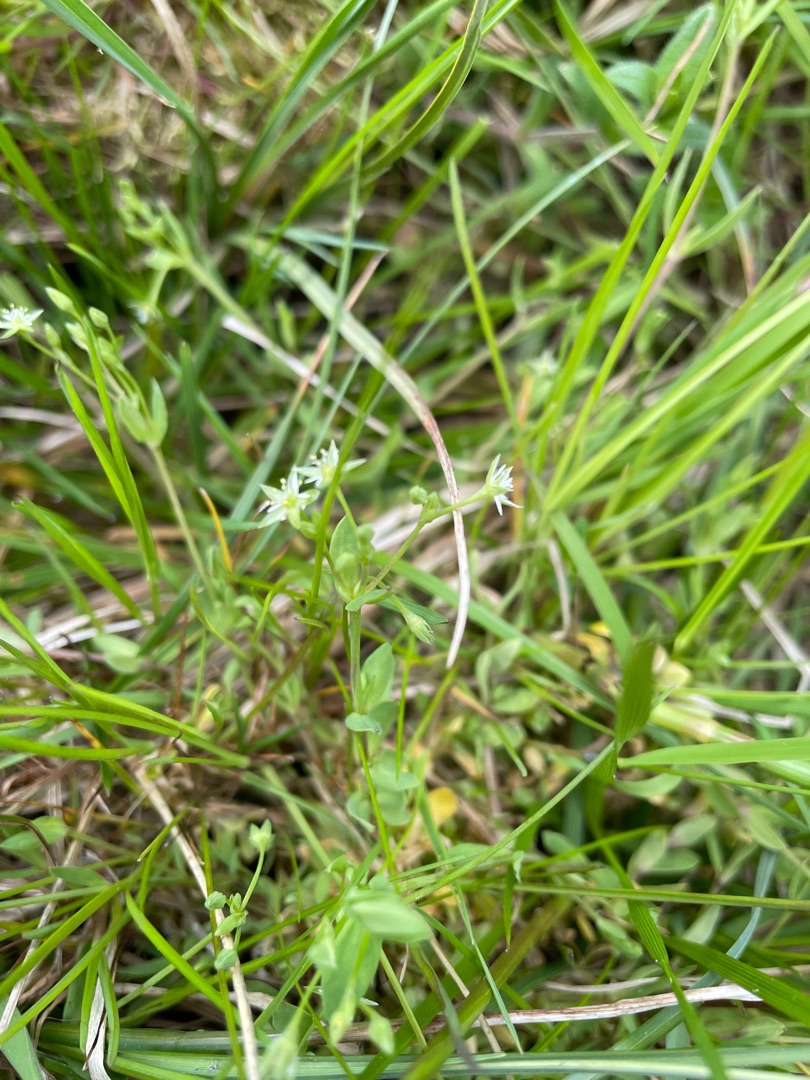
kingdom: Plantae
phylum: Tracheophyta
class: Magnoliopsida
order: Caryophyllales
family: Caryophyllaceae
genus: Stellaria
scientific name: Stellaria alsine
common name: Sump-fladstjerne
